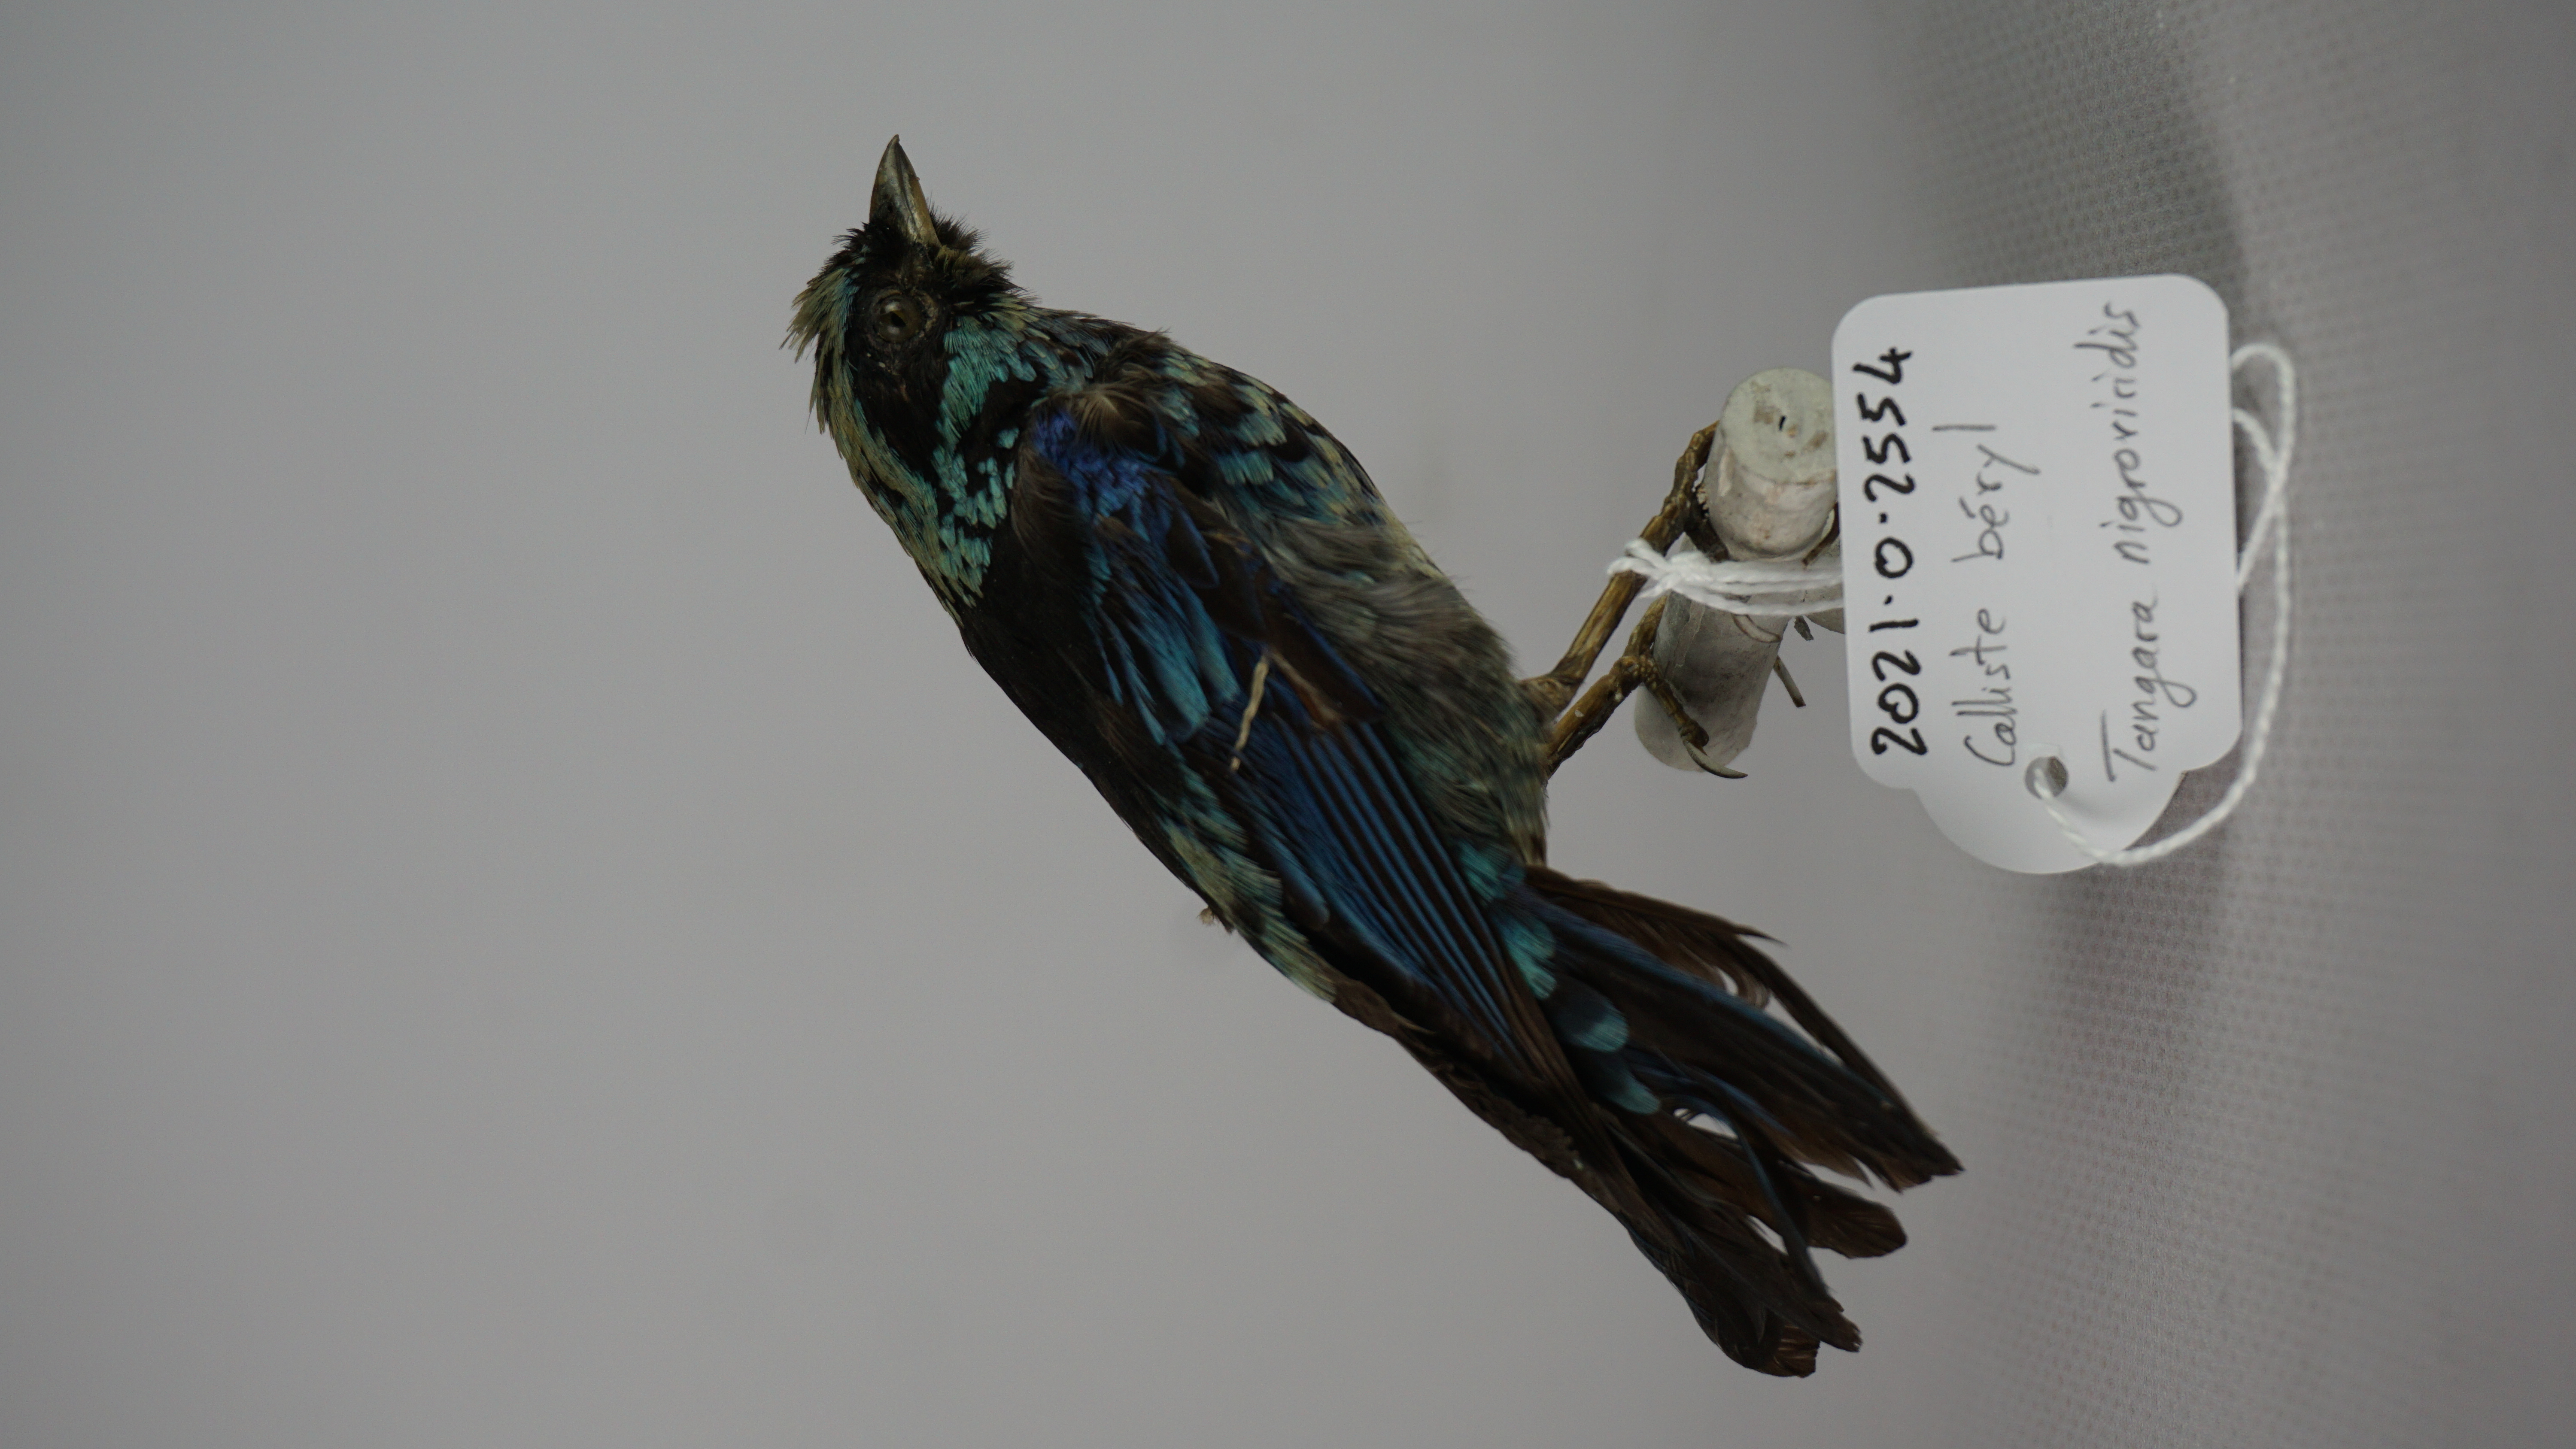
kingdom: Animalia
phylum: Chordata
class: Aves
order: Passeriformes
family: Thraupidae
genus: Tangara
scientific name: Tangara nigroviridis
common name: Beryl-spangled tanager
